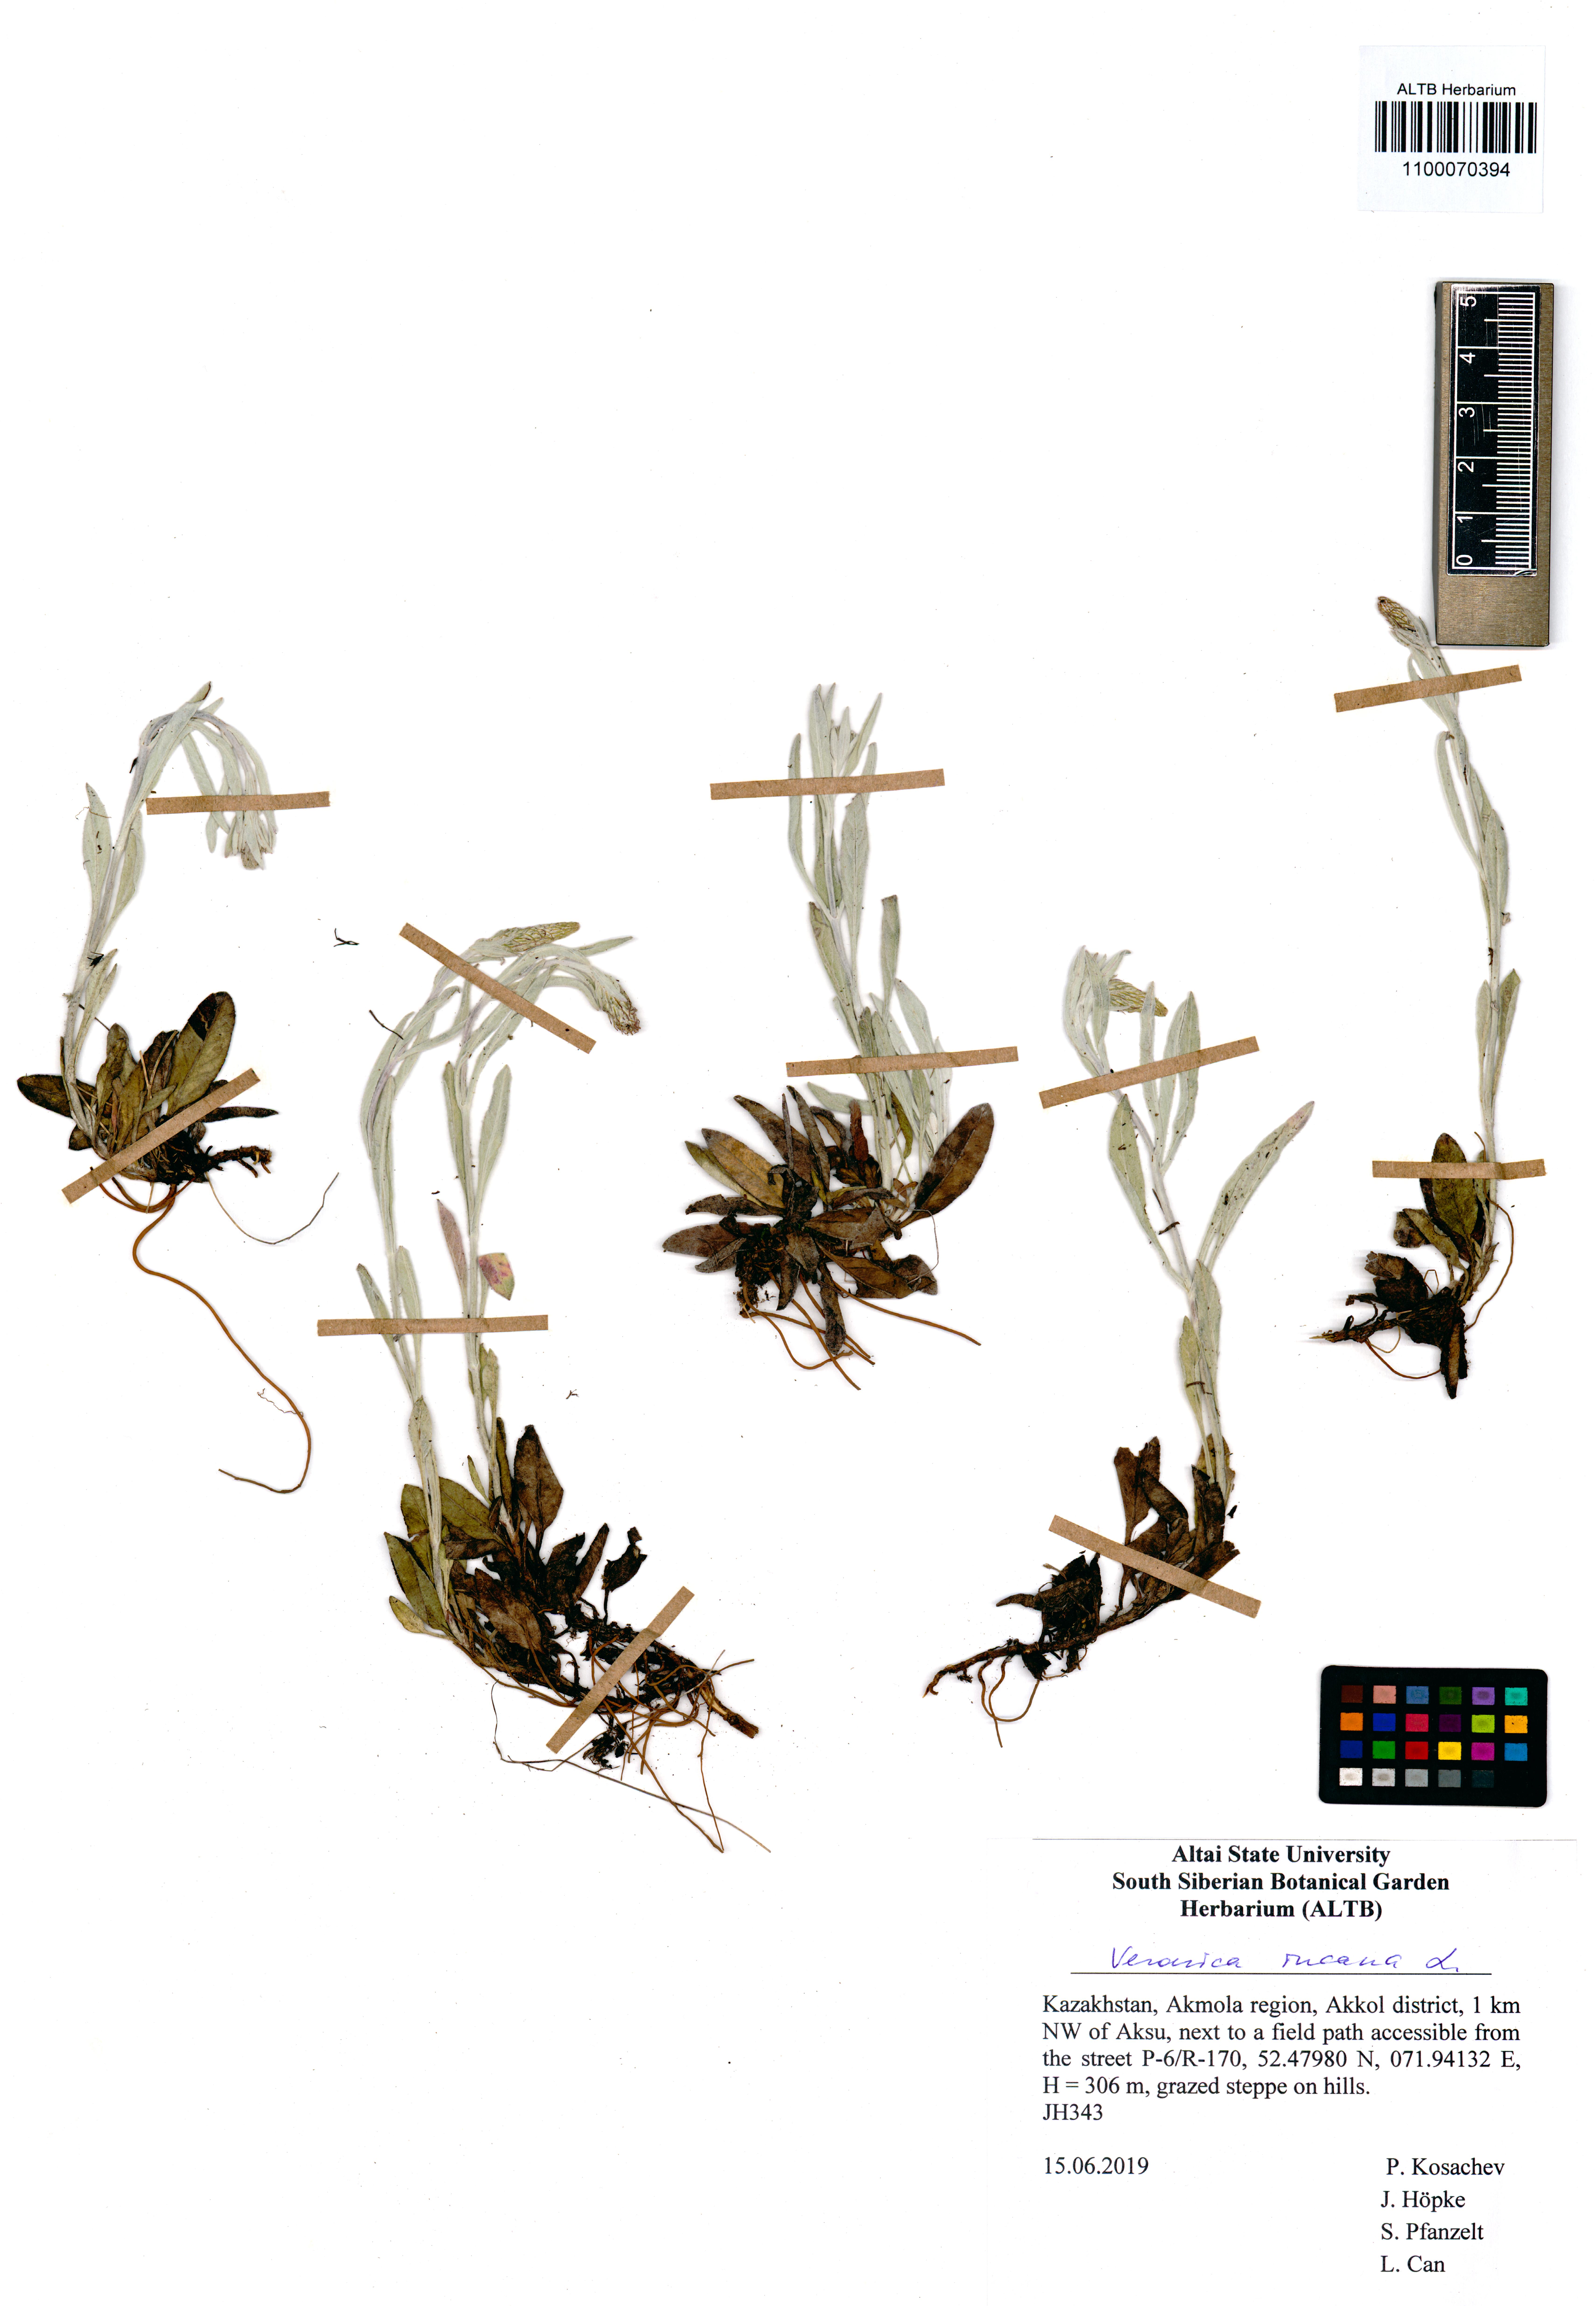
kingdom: Plantae
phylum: Tracheophyta
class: Magnoliopsida
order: Lamiales
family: Plantaginaceae
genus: Veronica
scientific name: Veronica incana
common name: Silver speedwell
